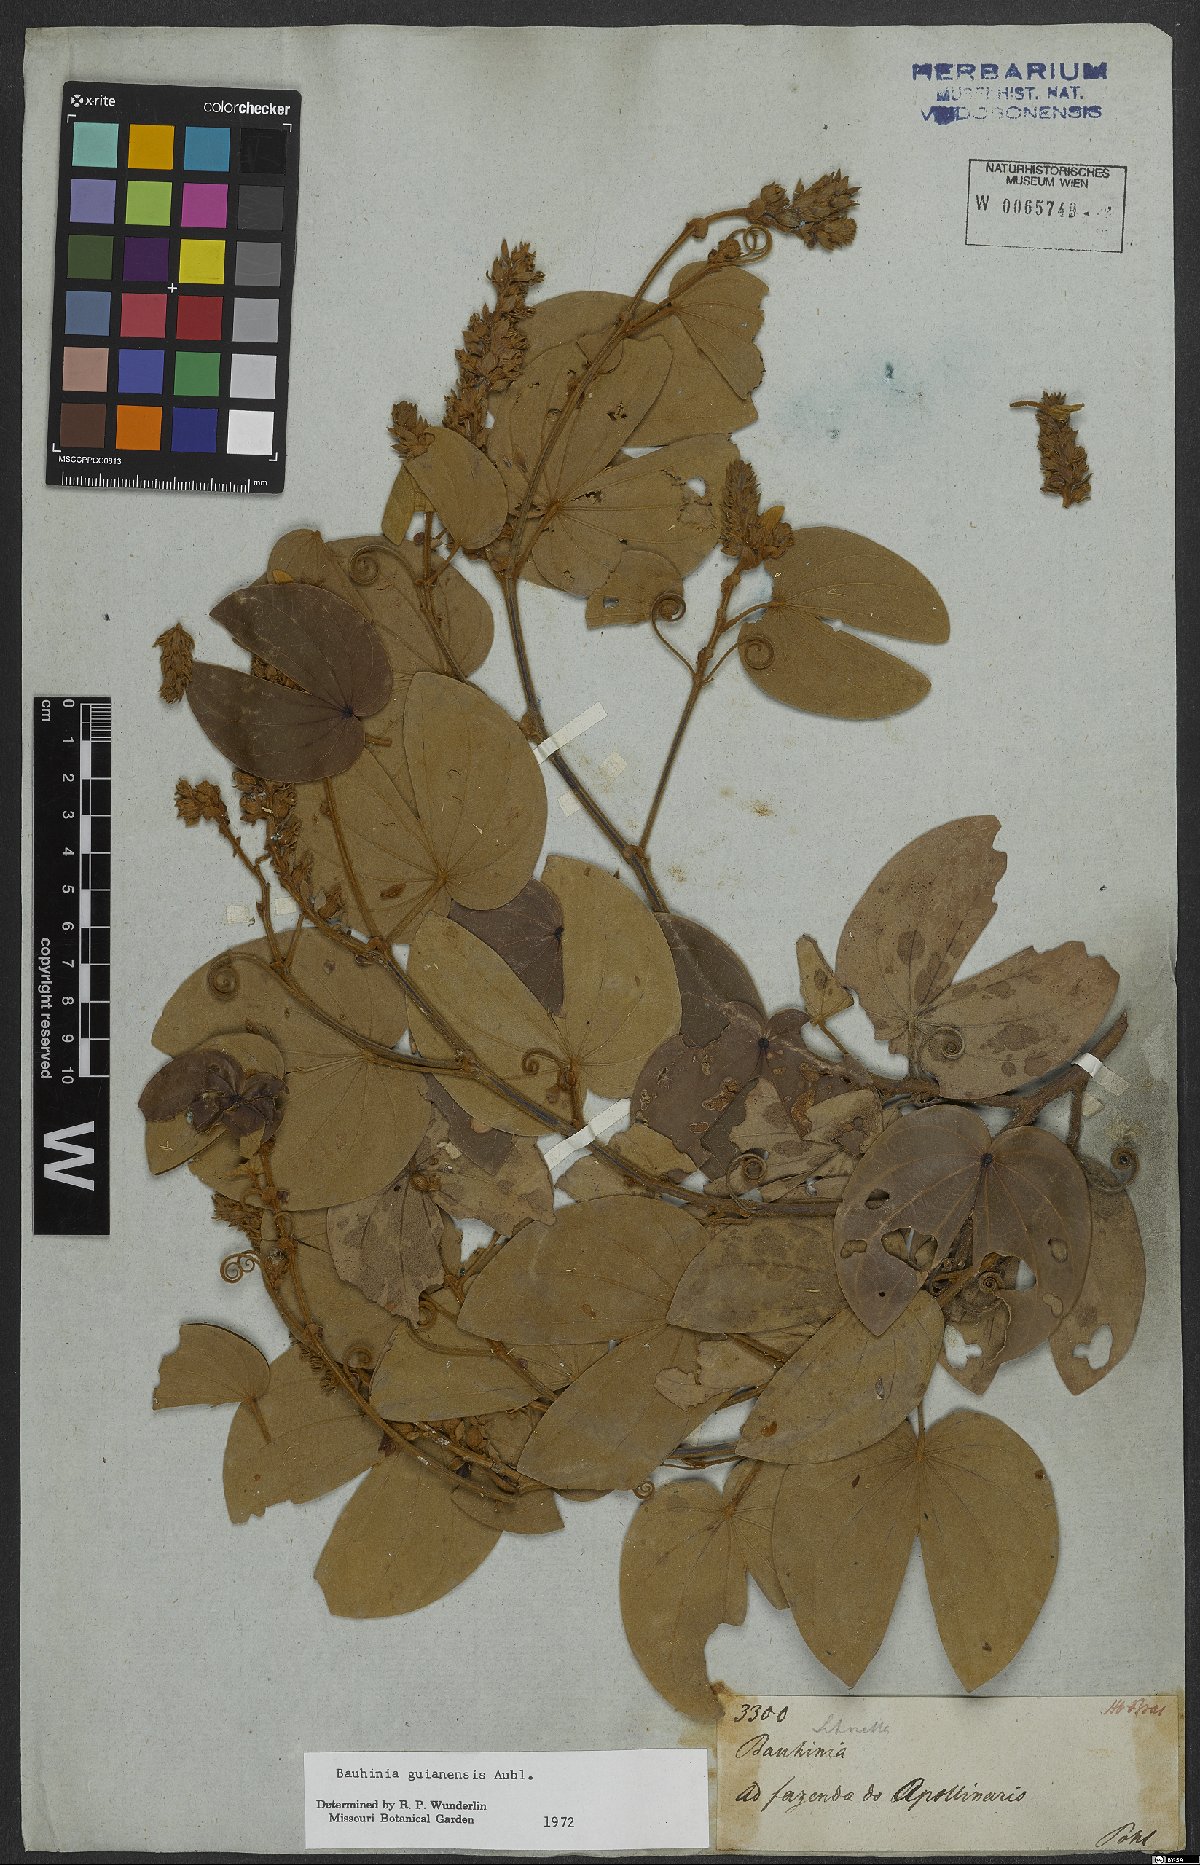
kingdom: Plantae
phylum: Tracheophyta
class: Magnoliopsida
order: Fabales
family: Fabaceae
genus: Schnella
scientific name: Schnella guianensis
